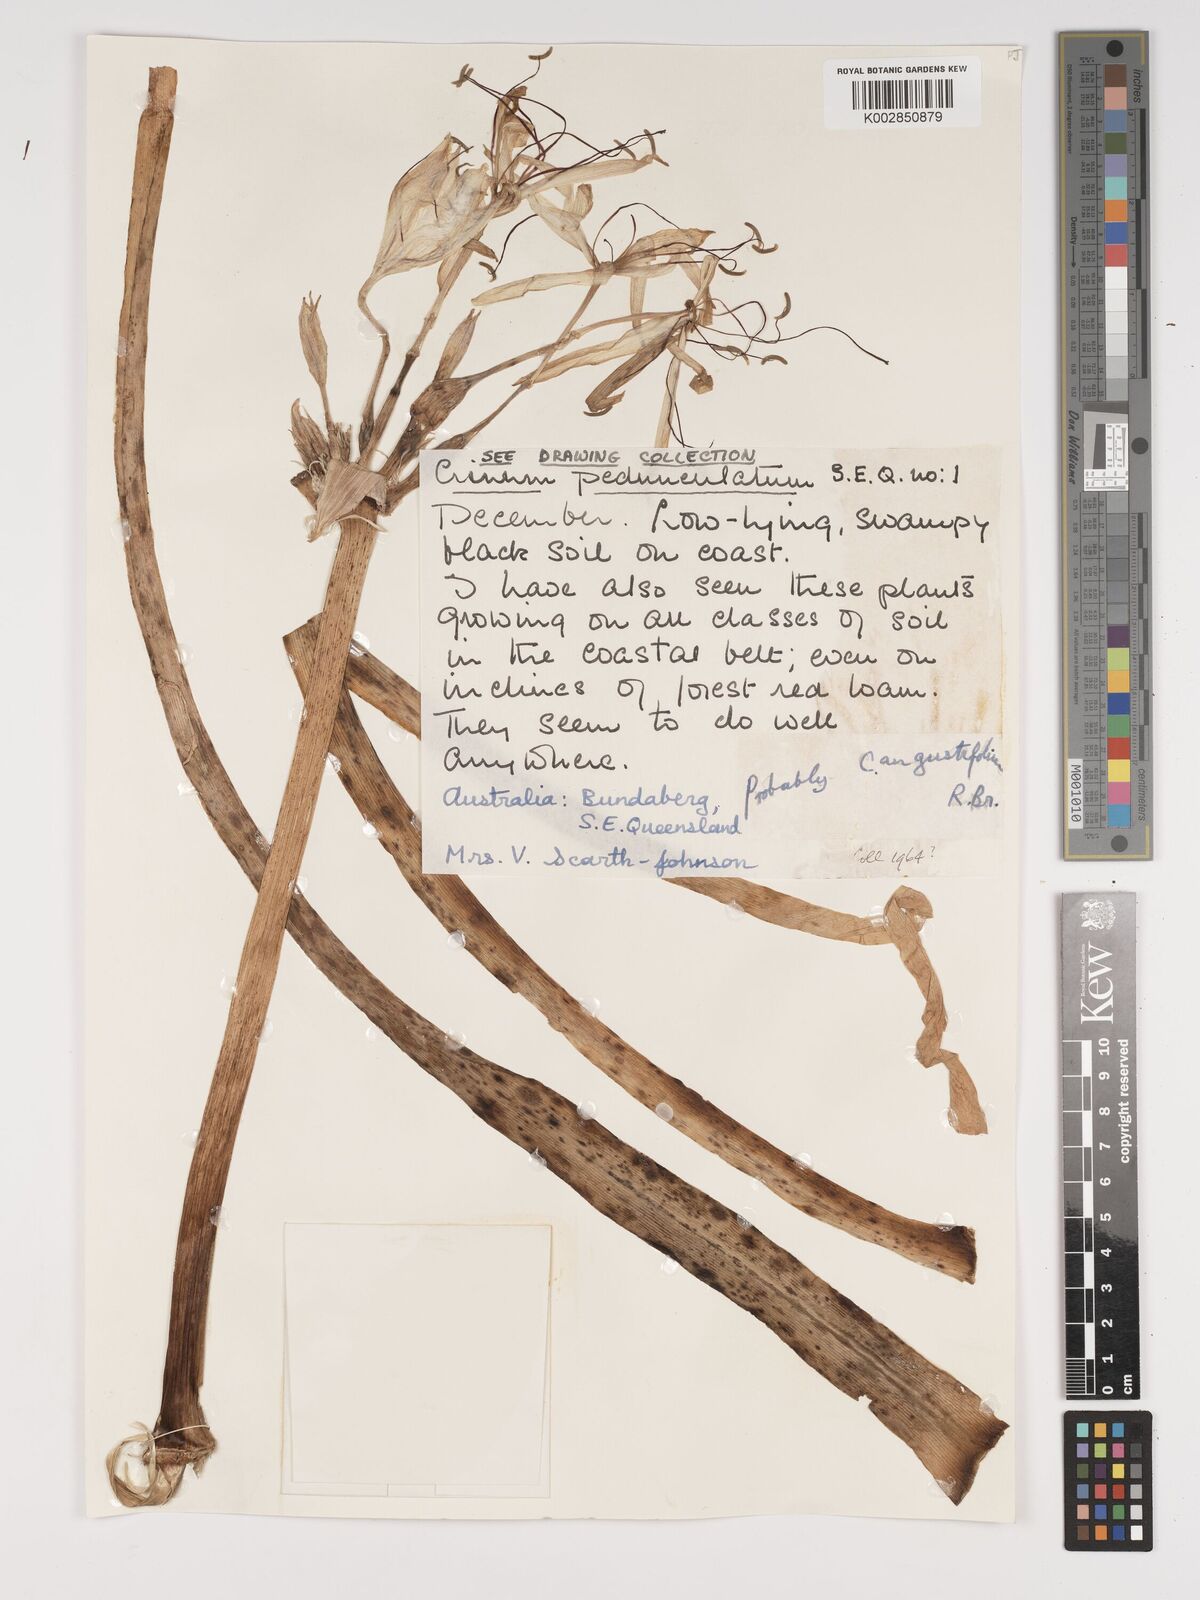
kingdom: Plantae
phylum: Tracheophyta
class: Liliopsida
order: Asparagales
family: Amaryllidaceae
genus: Crinum
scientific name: Crinum asiaticum
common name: Poisonbulb
